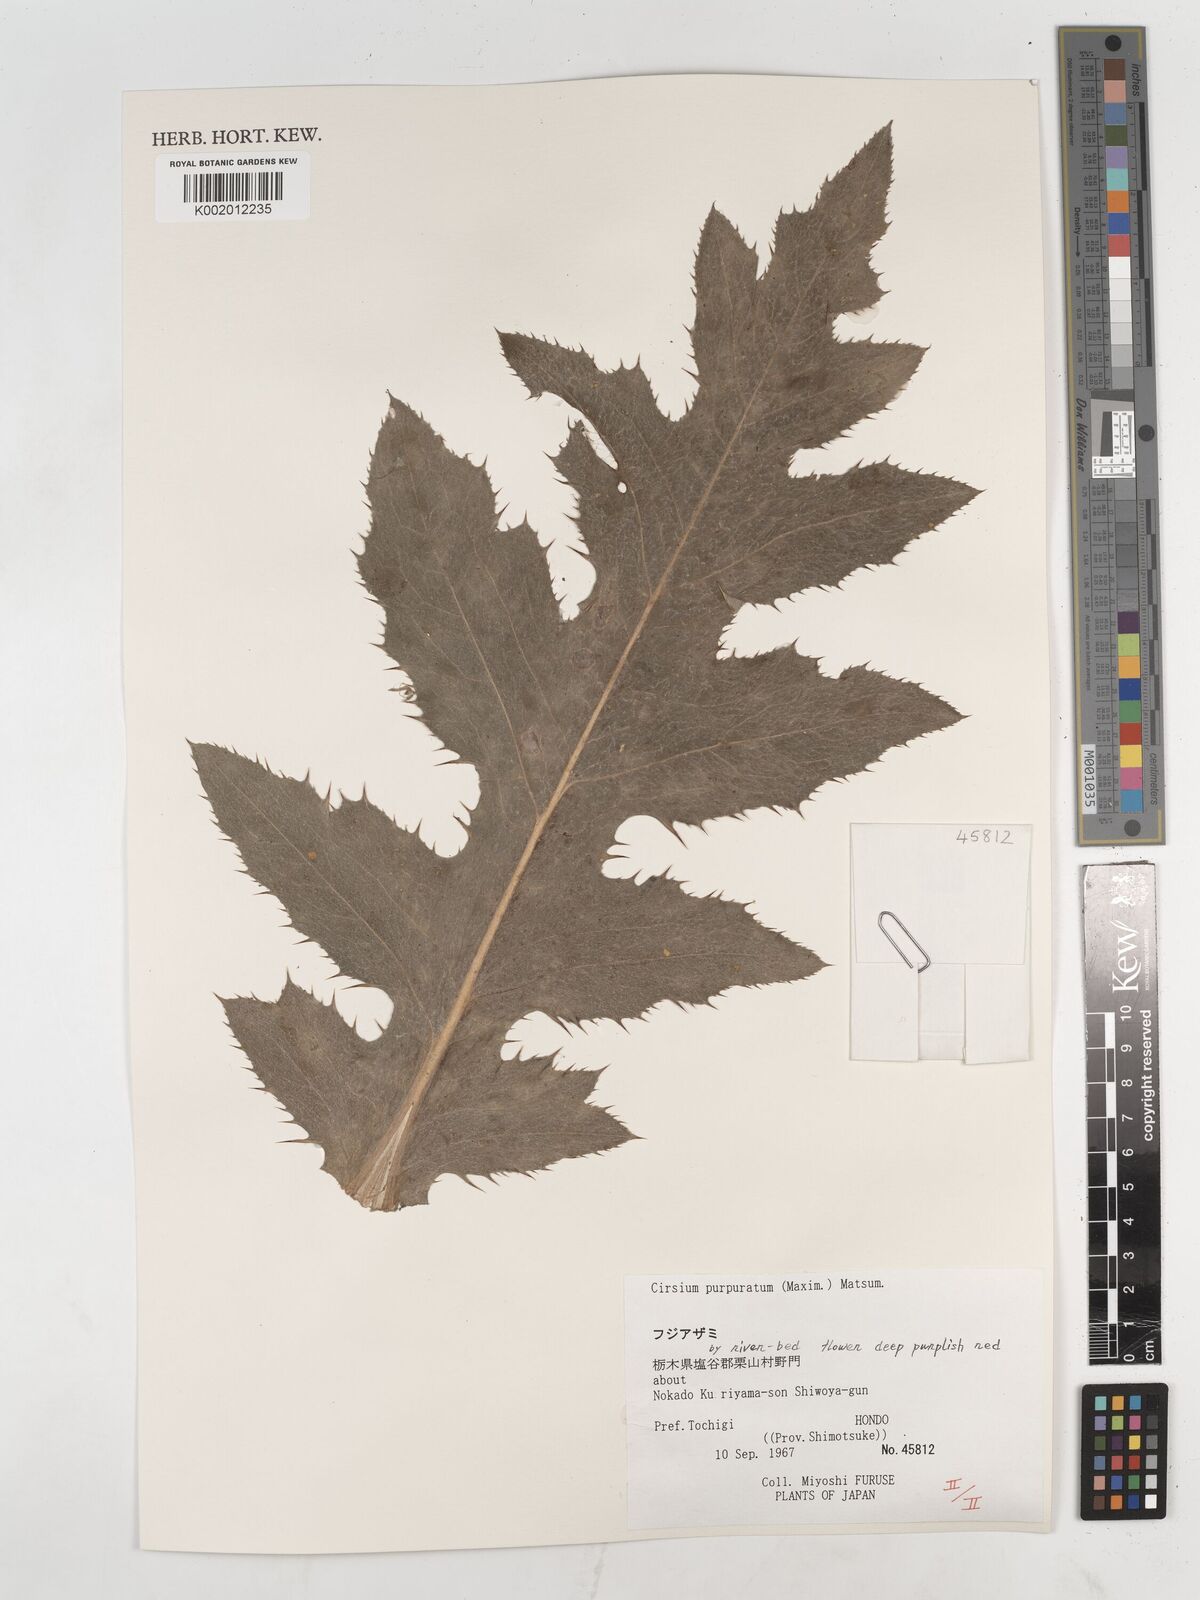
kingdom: Plantae
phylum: Tracheophyta
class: Magnoliopsida
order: Asterales
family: Asteraceae
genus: Cirsium
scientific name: Cirsium purpuratum
